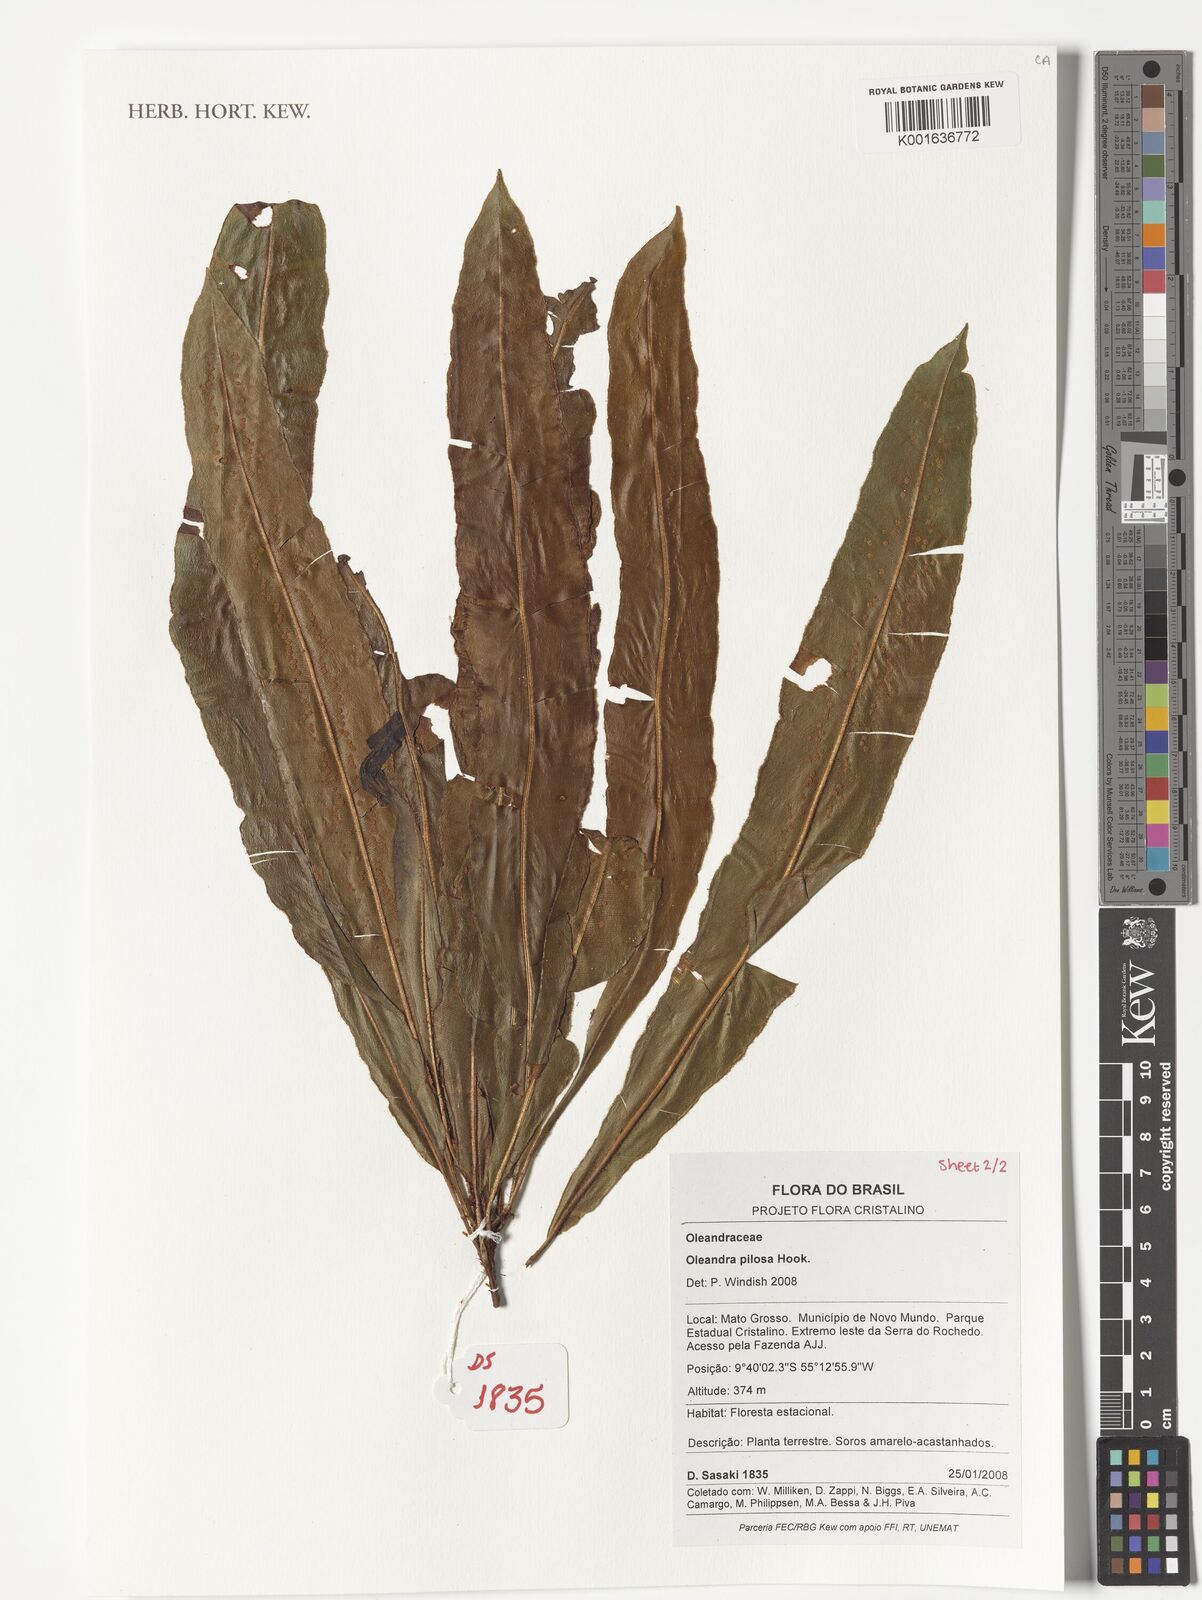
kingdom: Plantae
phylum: Tracheophyta
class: Polypodiopsida
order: Polypodiales
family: Oleandraceae
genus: Oleandra
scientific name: Oleandra pilosa
